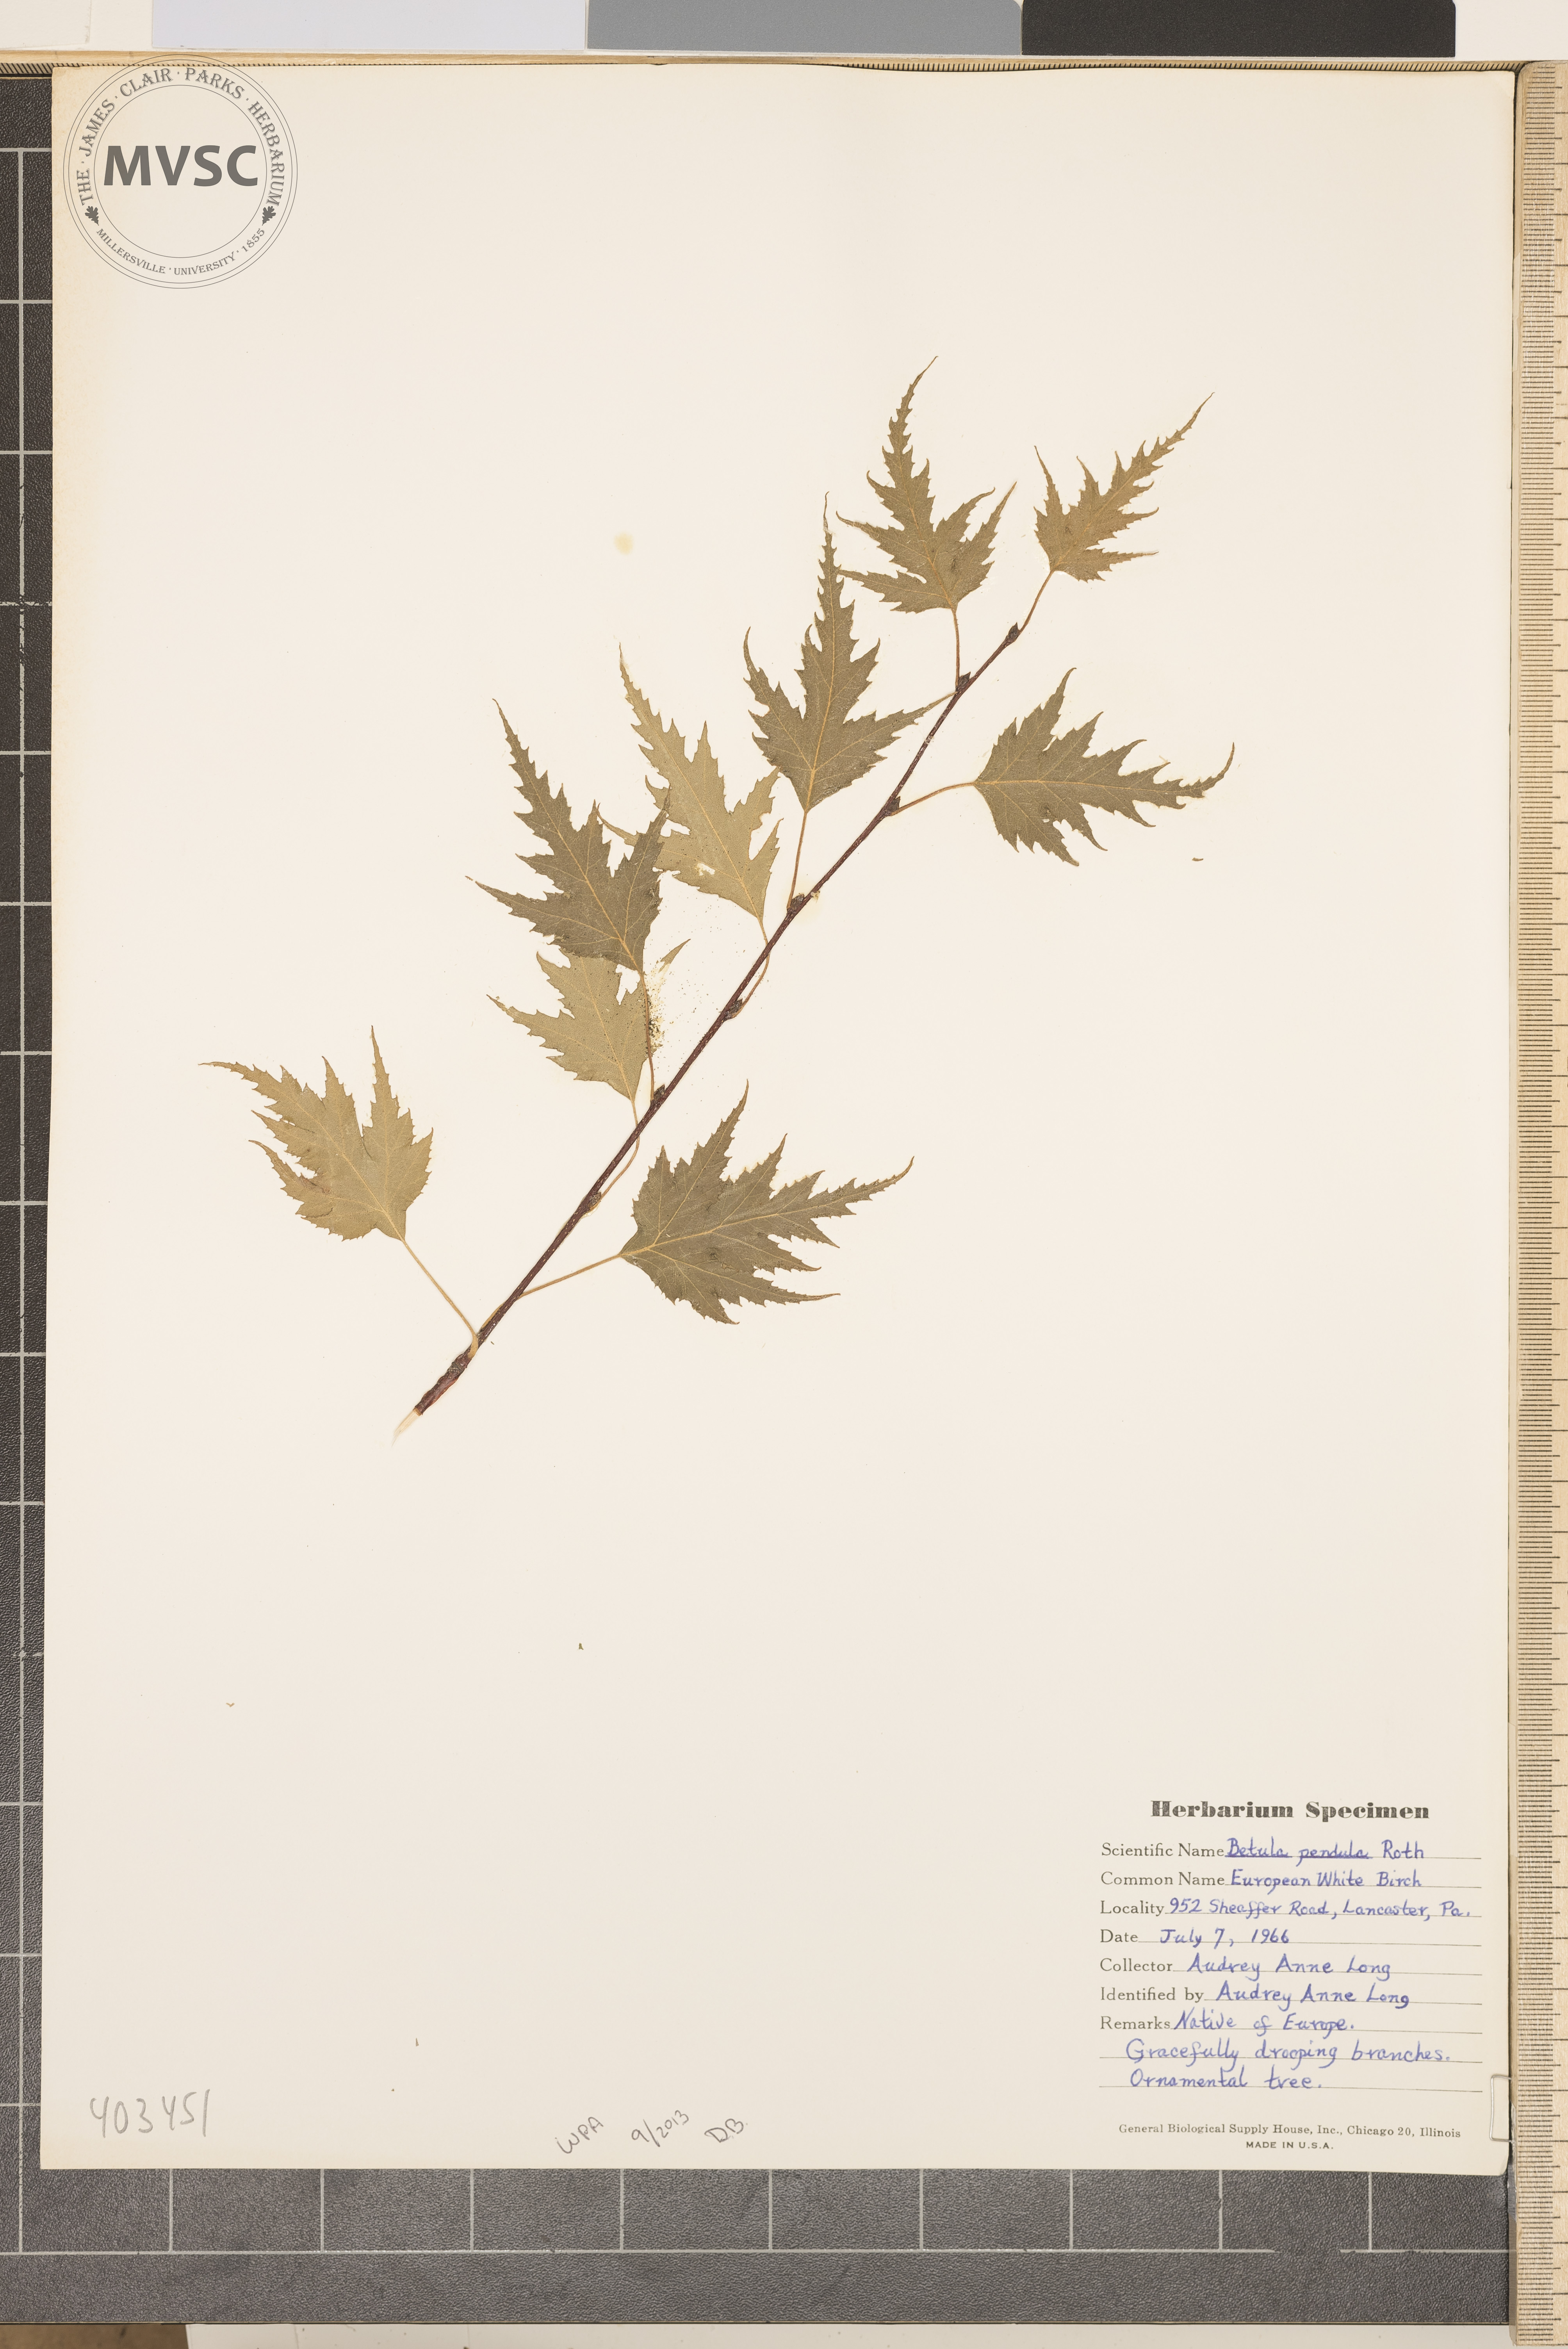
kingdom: Plantae
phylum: Tracheophyta
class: Magnoliopsida
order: Fagales
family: Betulaceae
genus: Betula
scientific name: Betula pendula
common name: European White Birch
